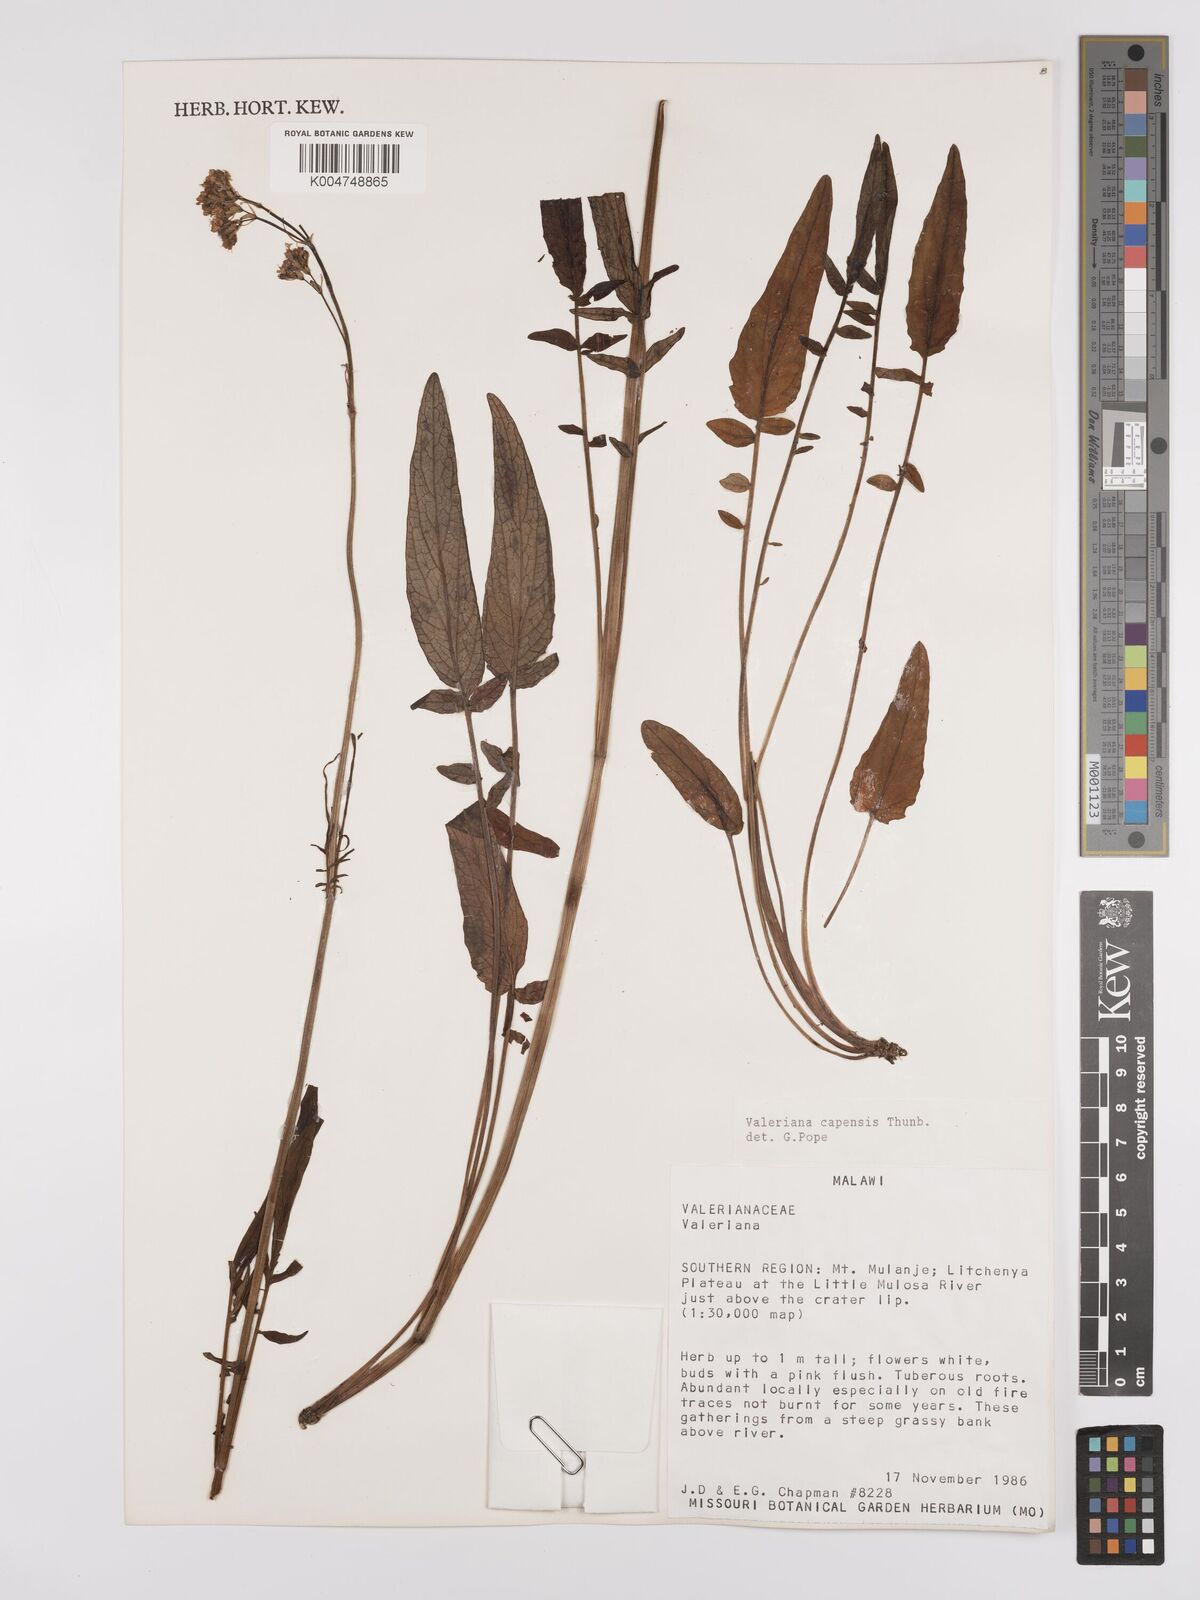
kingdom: Plantae
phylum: Tracheophyta
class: Magnoliopsida
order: Dipsacales
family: Caprifoliaceae
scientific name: Caprifoliaceae
